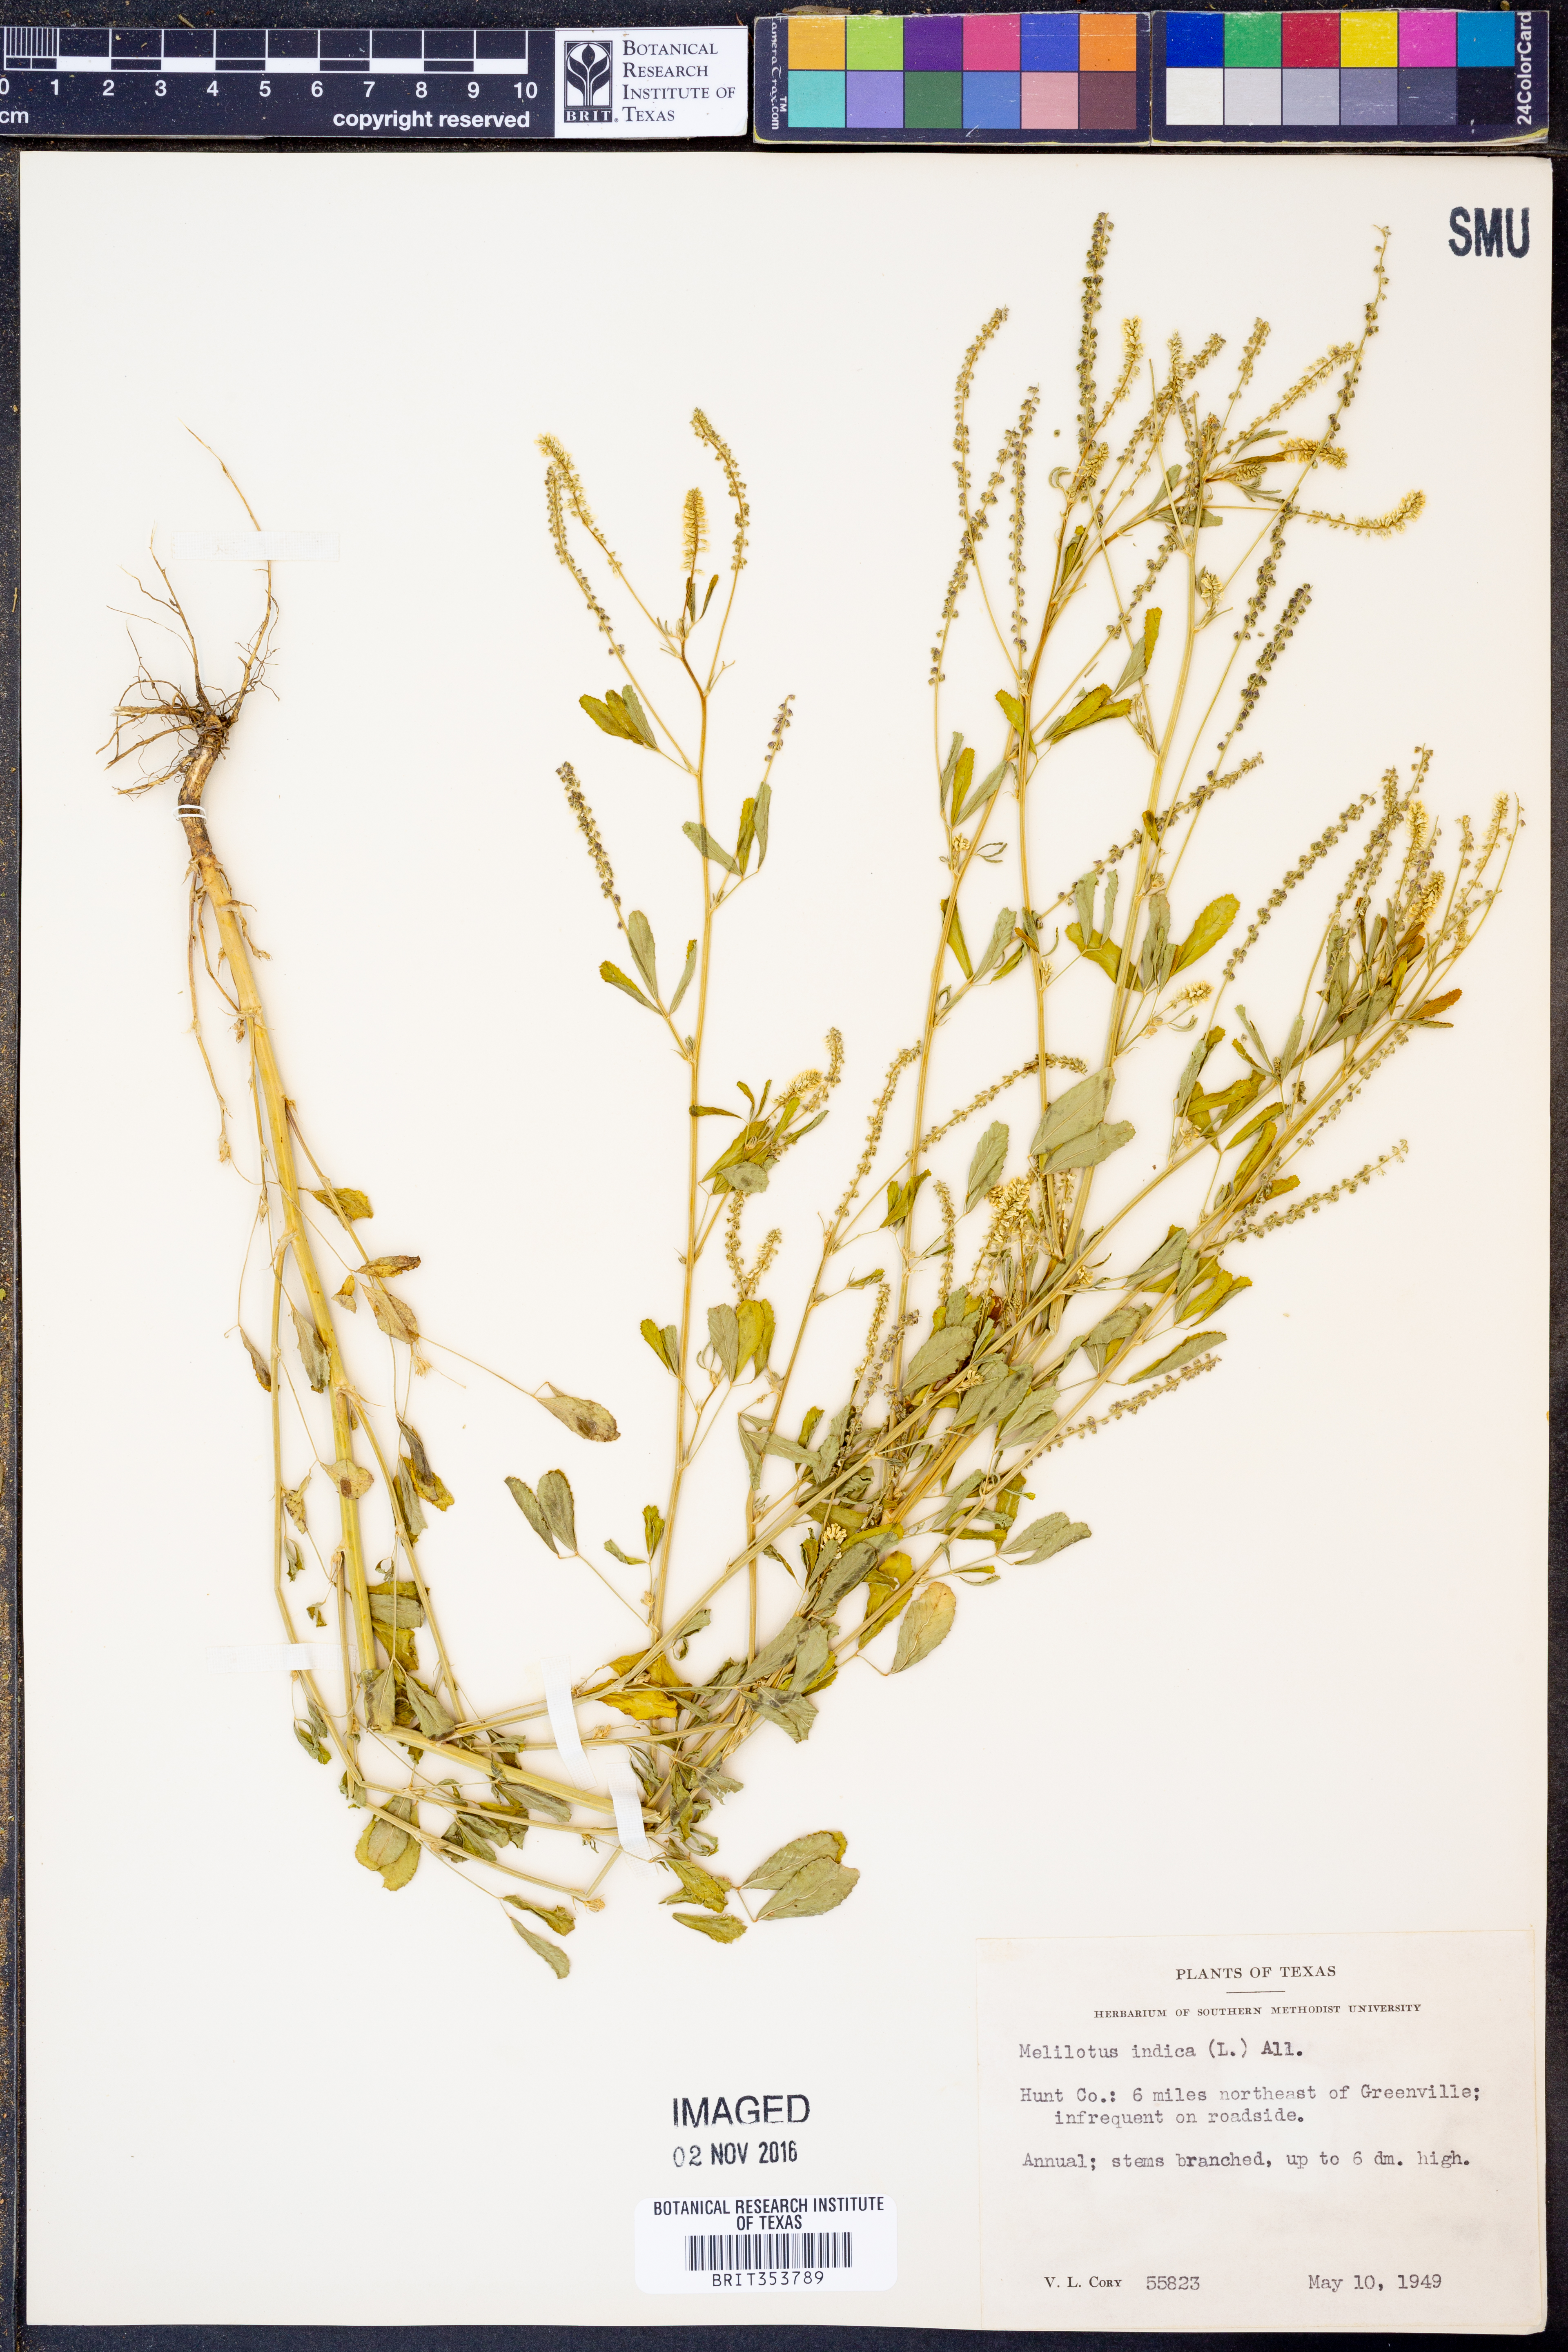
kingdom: Plantae
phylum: Tracheophyta
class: Magnoliopsida
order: Fabales
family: Fabaceae
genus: Melilotus
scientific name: Melilotus indicus
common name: Small melilot
